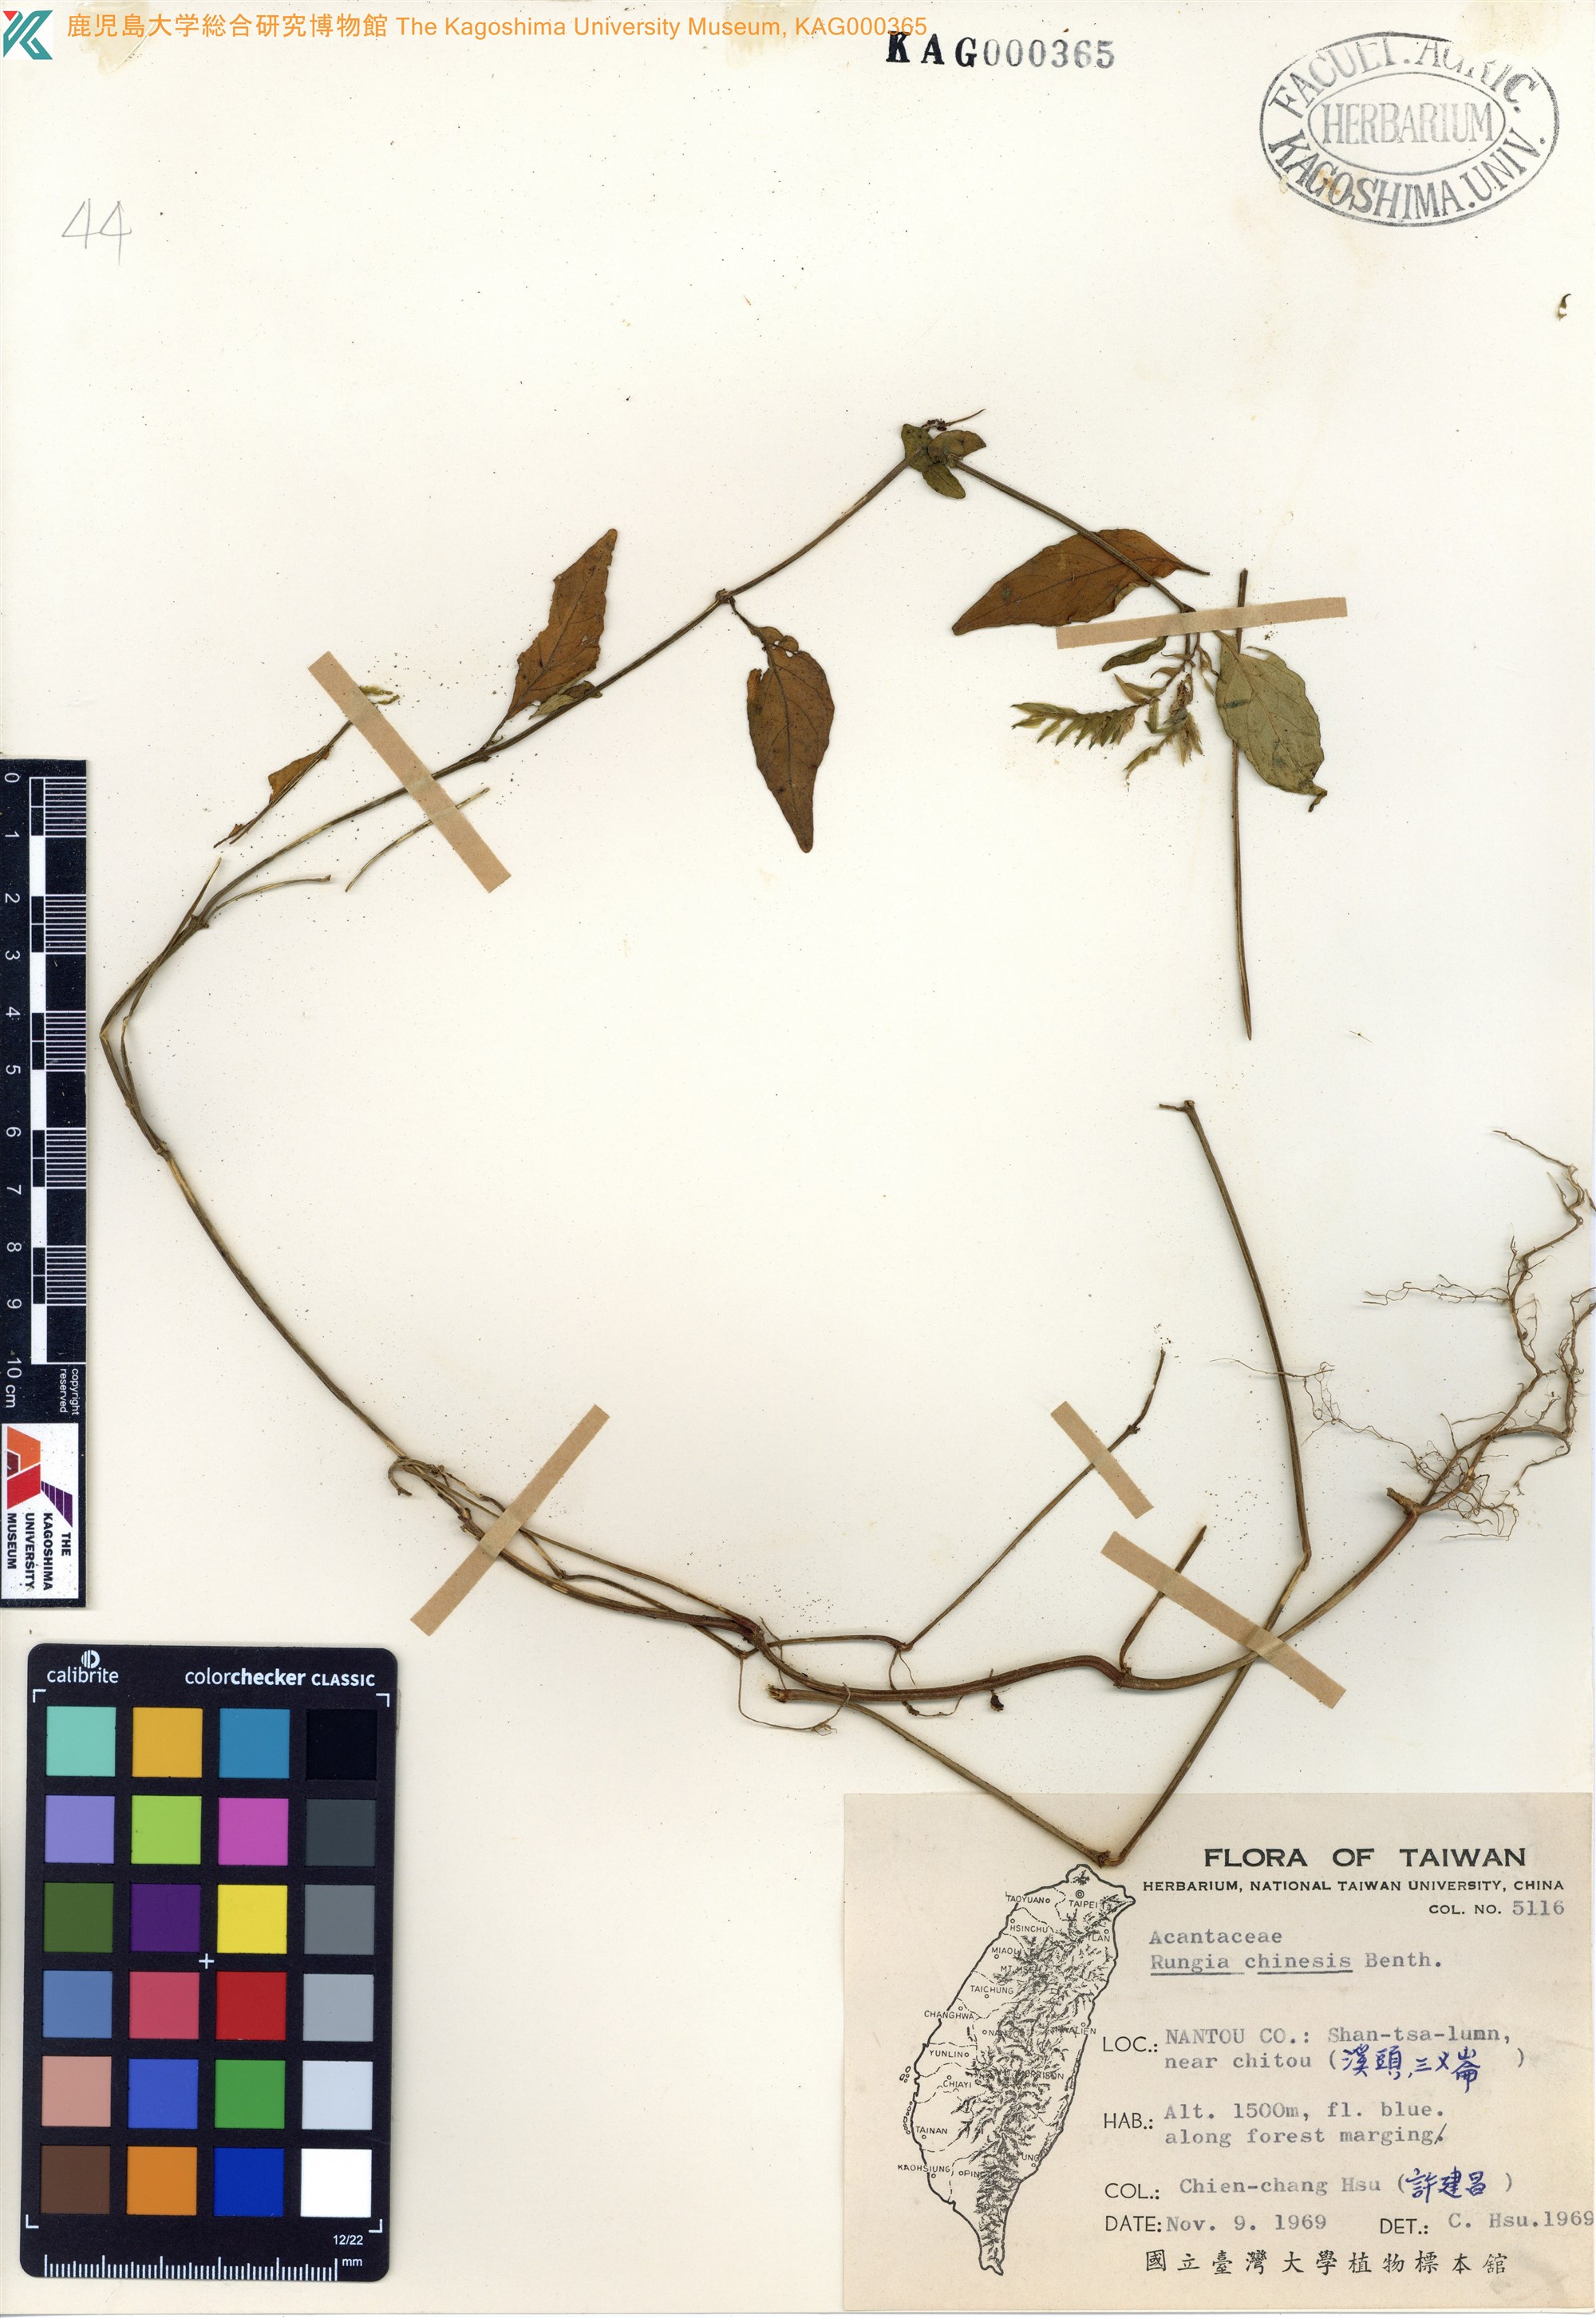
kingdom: Plantae
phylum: Tracheophyta
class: Magnoliopsida
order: Lamiales
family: Acanthaceae
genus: Rungia
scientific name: Rungia chinensis
